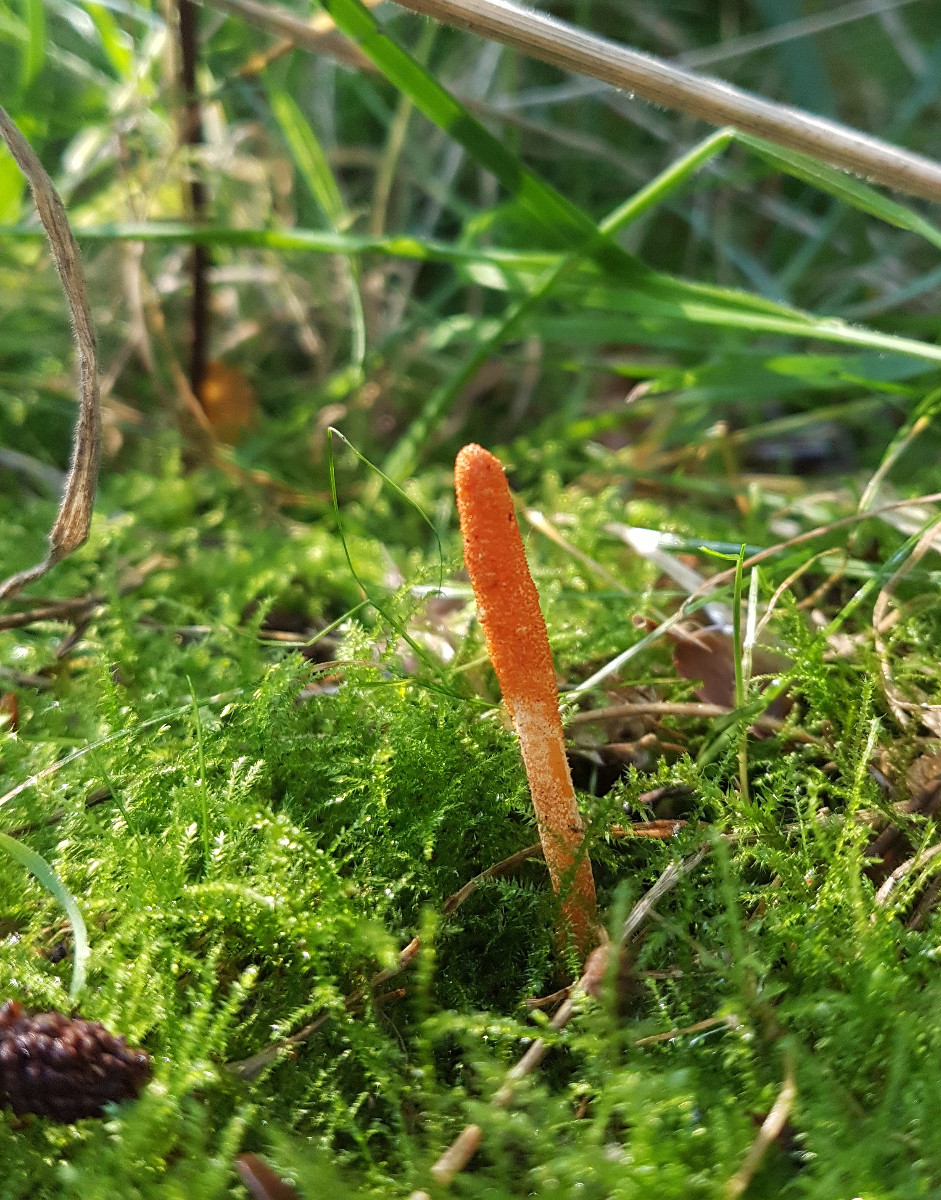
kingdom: Fungi
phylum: Ascomycota
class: Sordariomycetes
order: Hypocreales
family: Cordycipitaceae
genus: Cordyceps
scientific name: Cordyceps militaris
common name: puppe-snyltekølle
